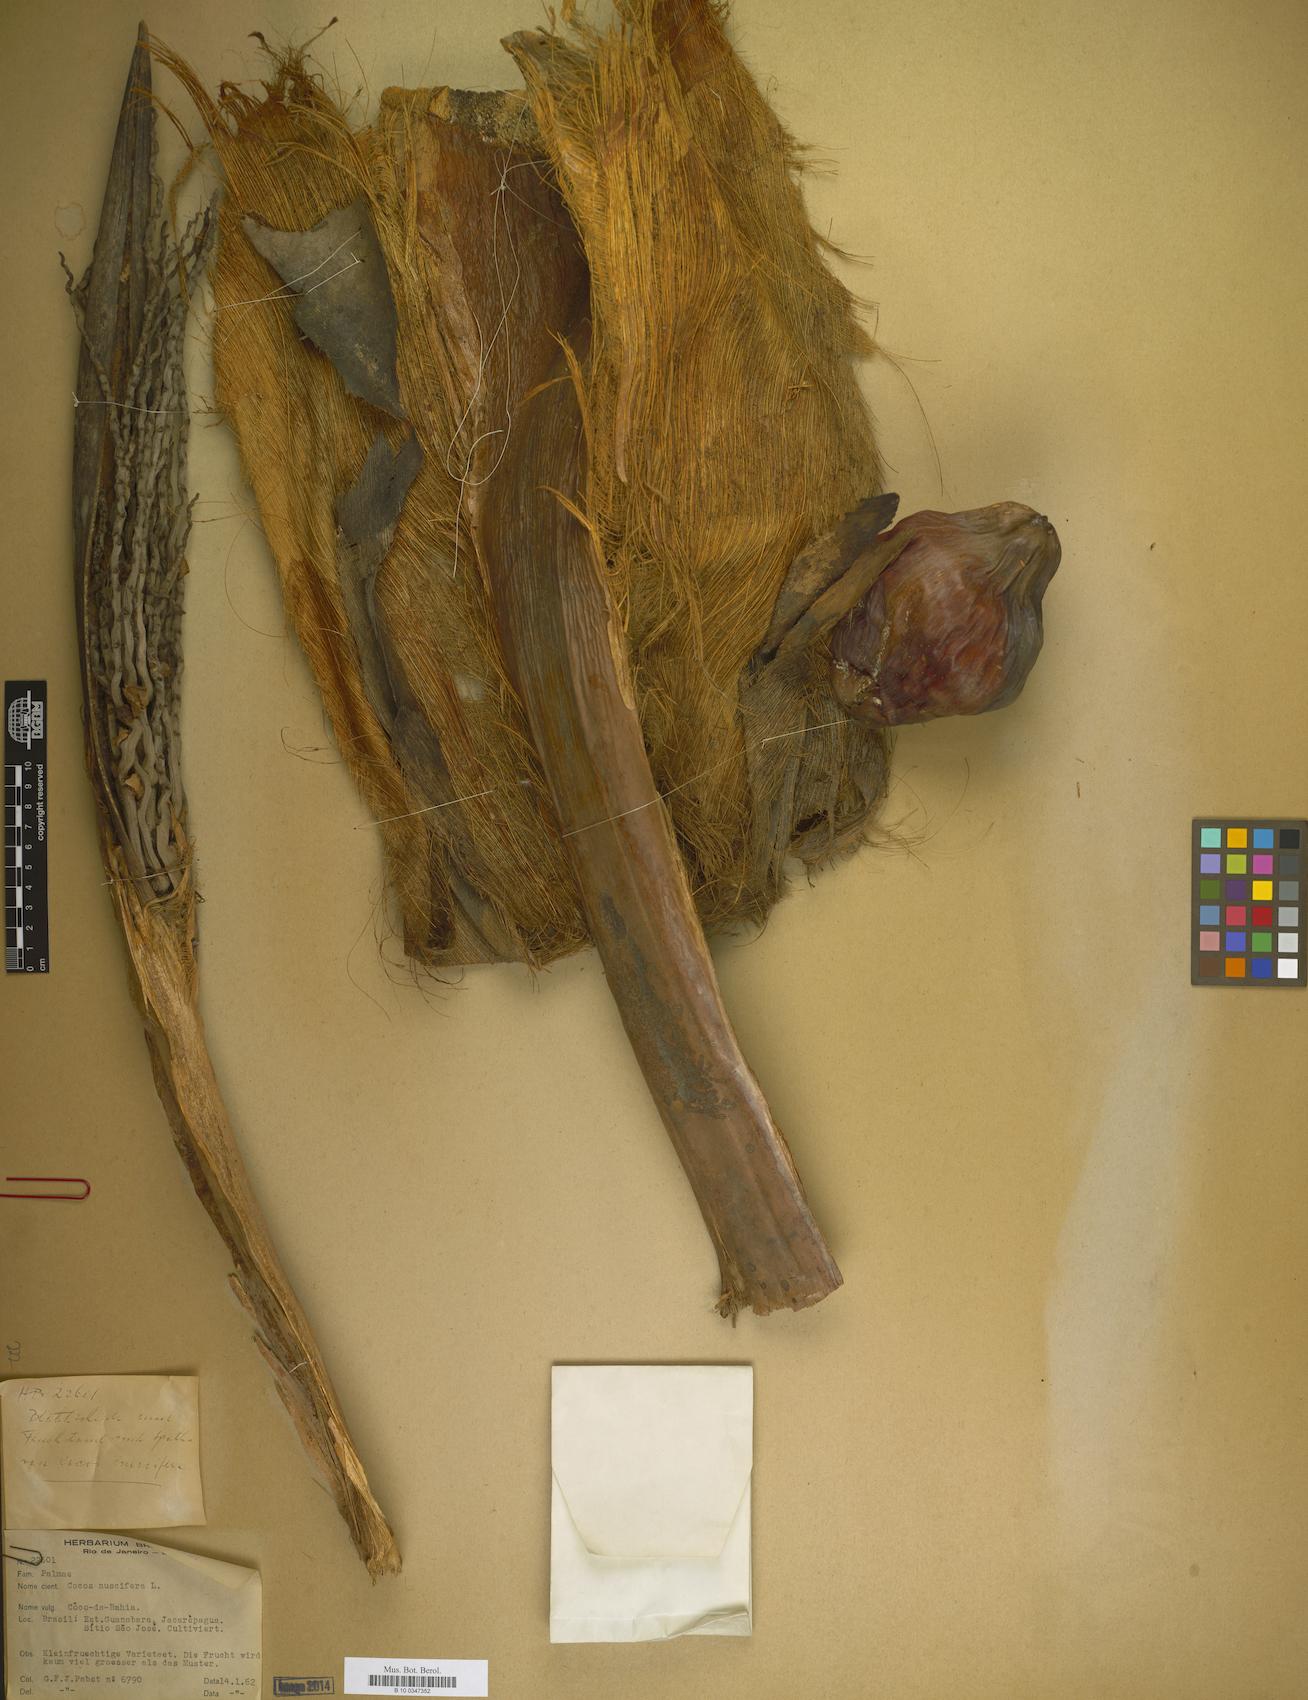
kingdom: Plantae
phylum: Tracheophyta
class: Liliopsida
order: Arecales
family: Arecaceae
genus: Cocos
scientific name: Cocos nucifera
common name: Coconut palm
